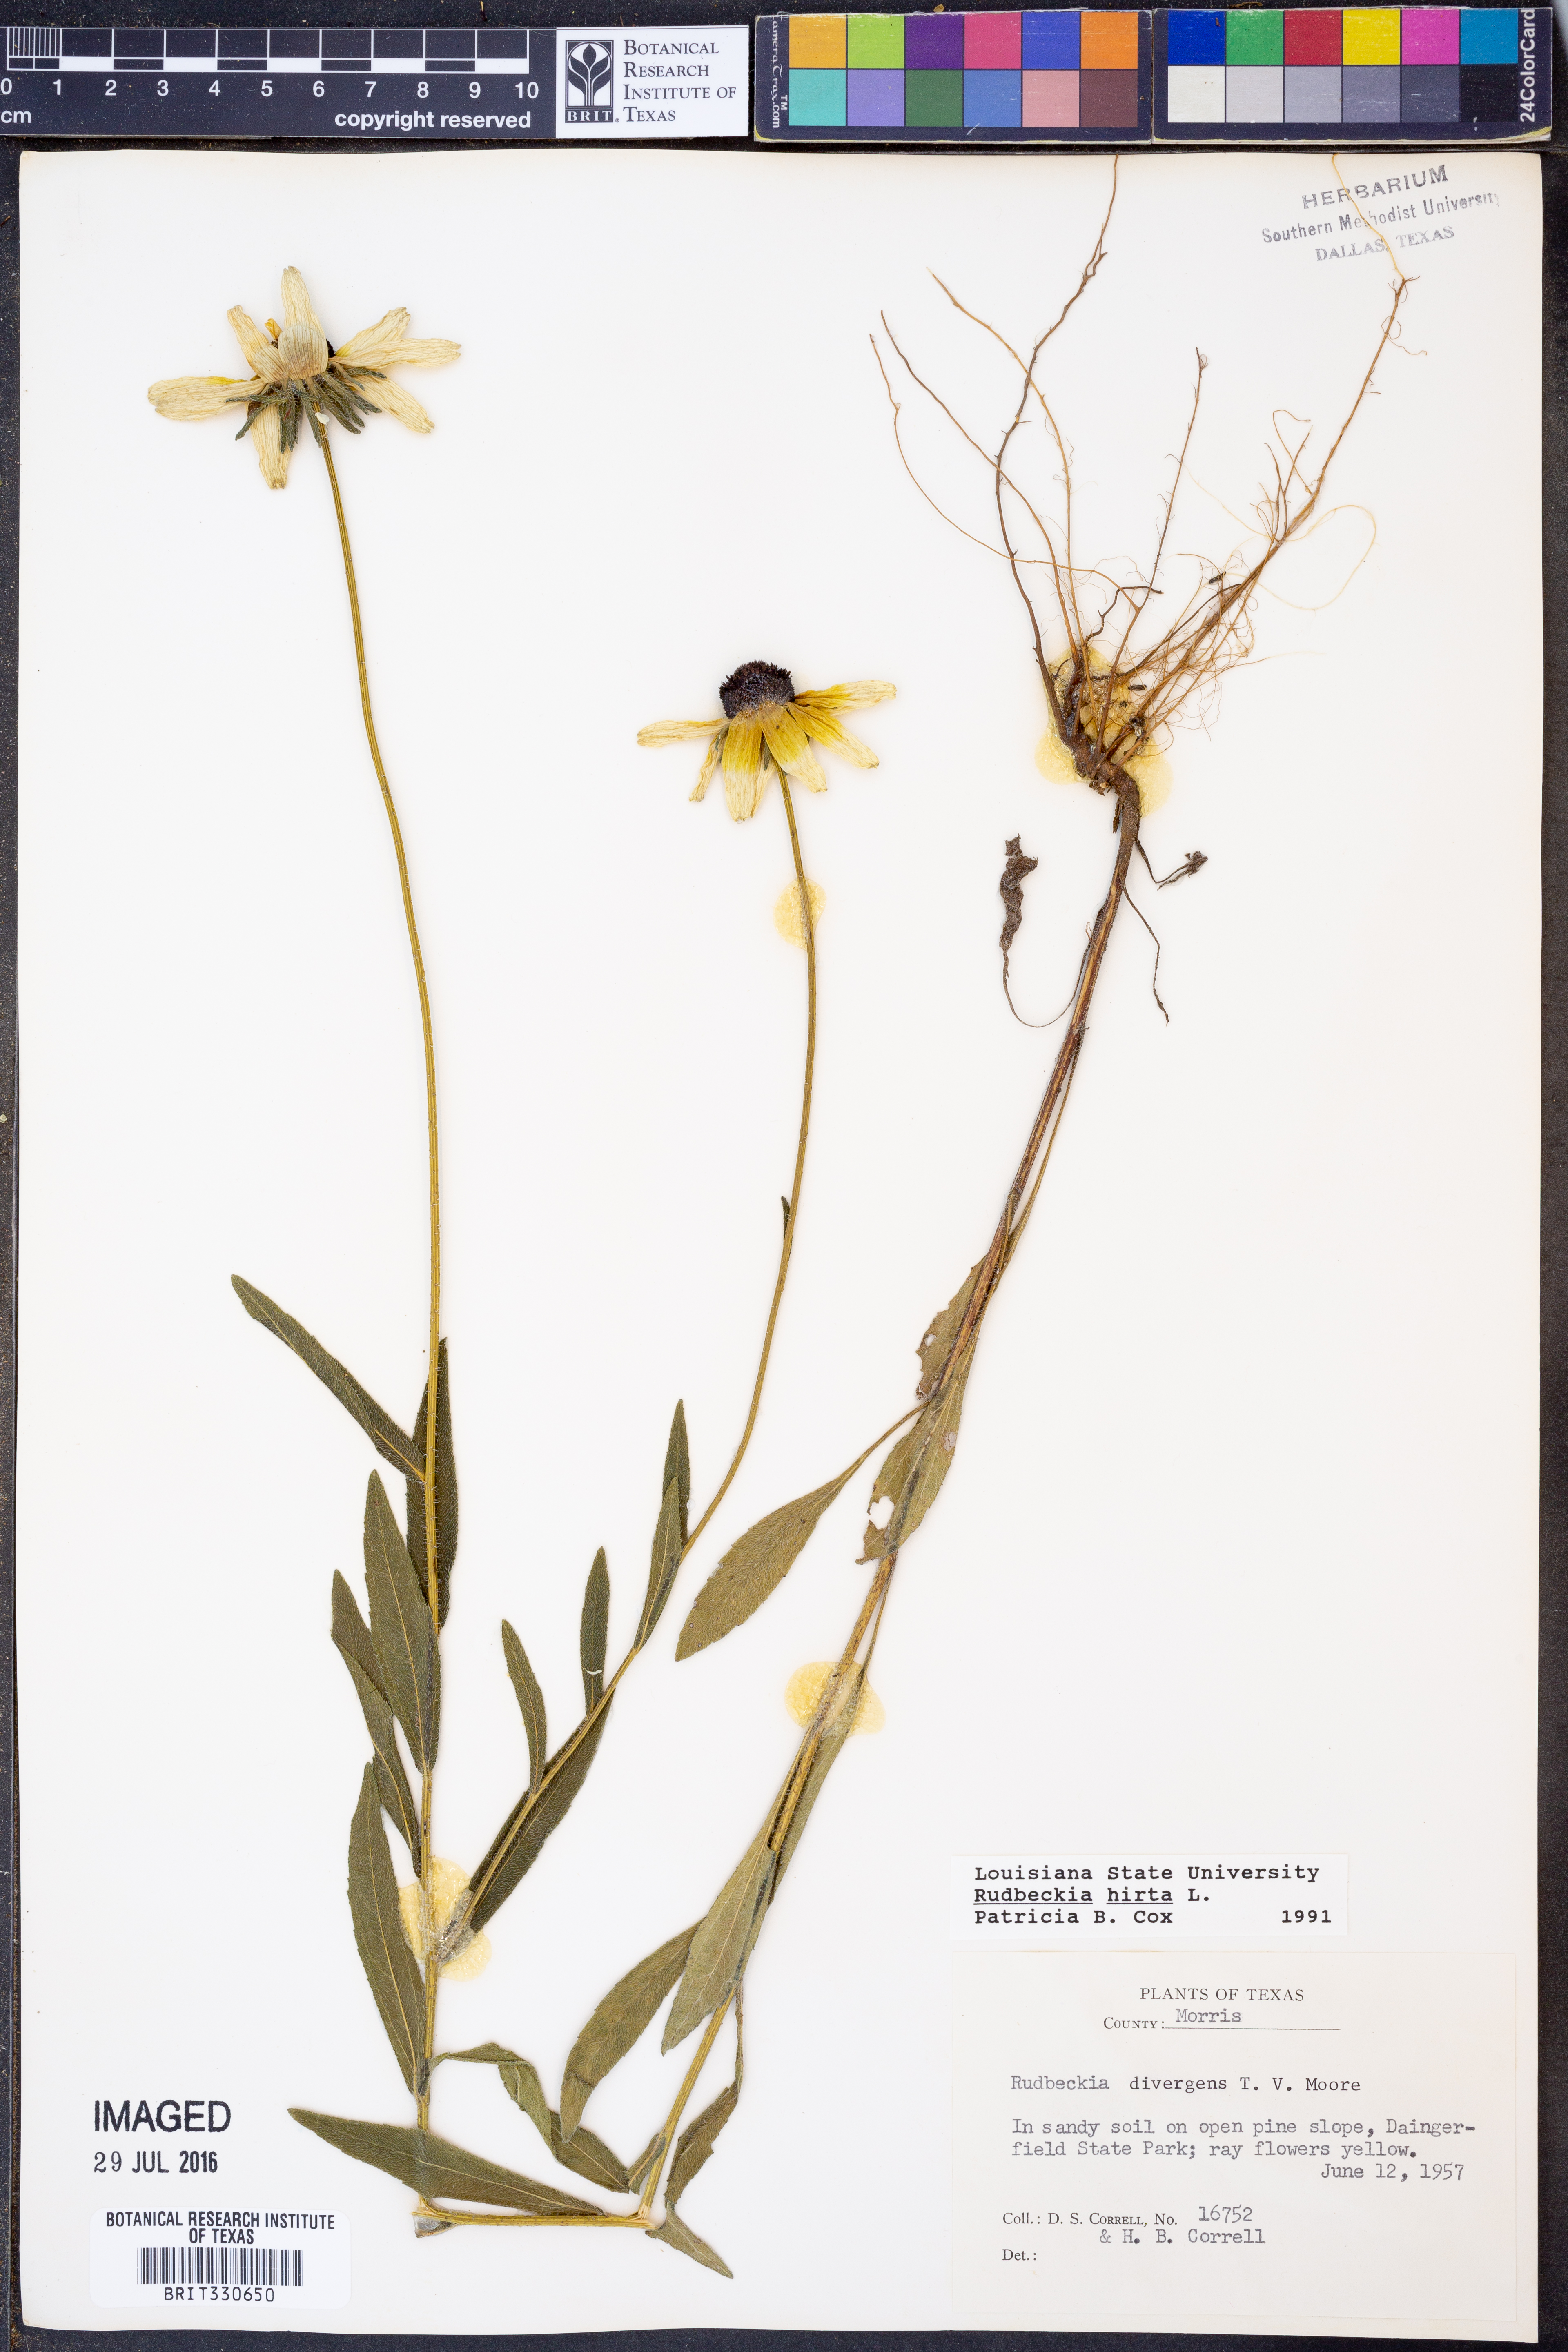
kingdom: Plantae
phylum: Tracheophyta
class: Magnoliopsida
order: Asterales
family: Asteraceae
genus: Rudbeckia
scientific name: Rudbeckia hirta
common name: Black-eyed-susan
